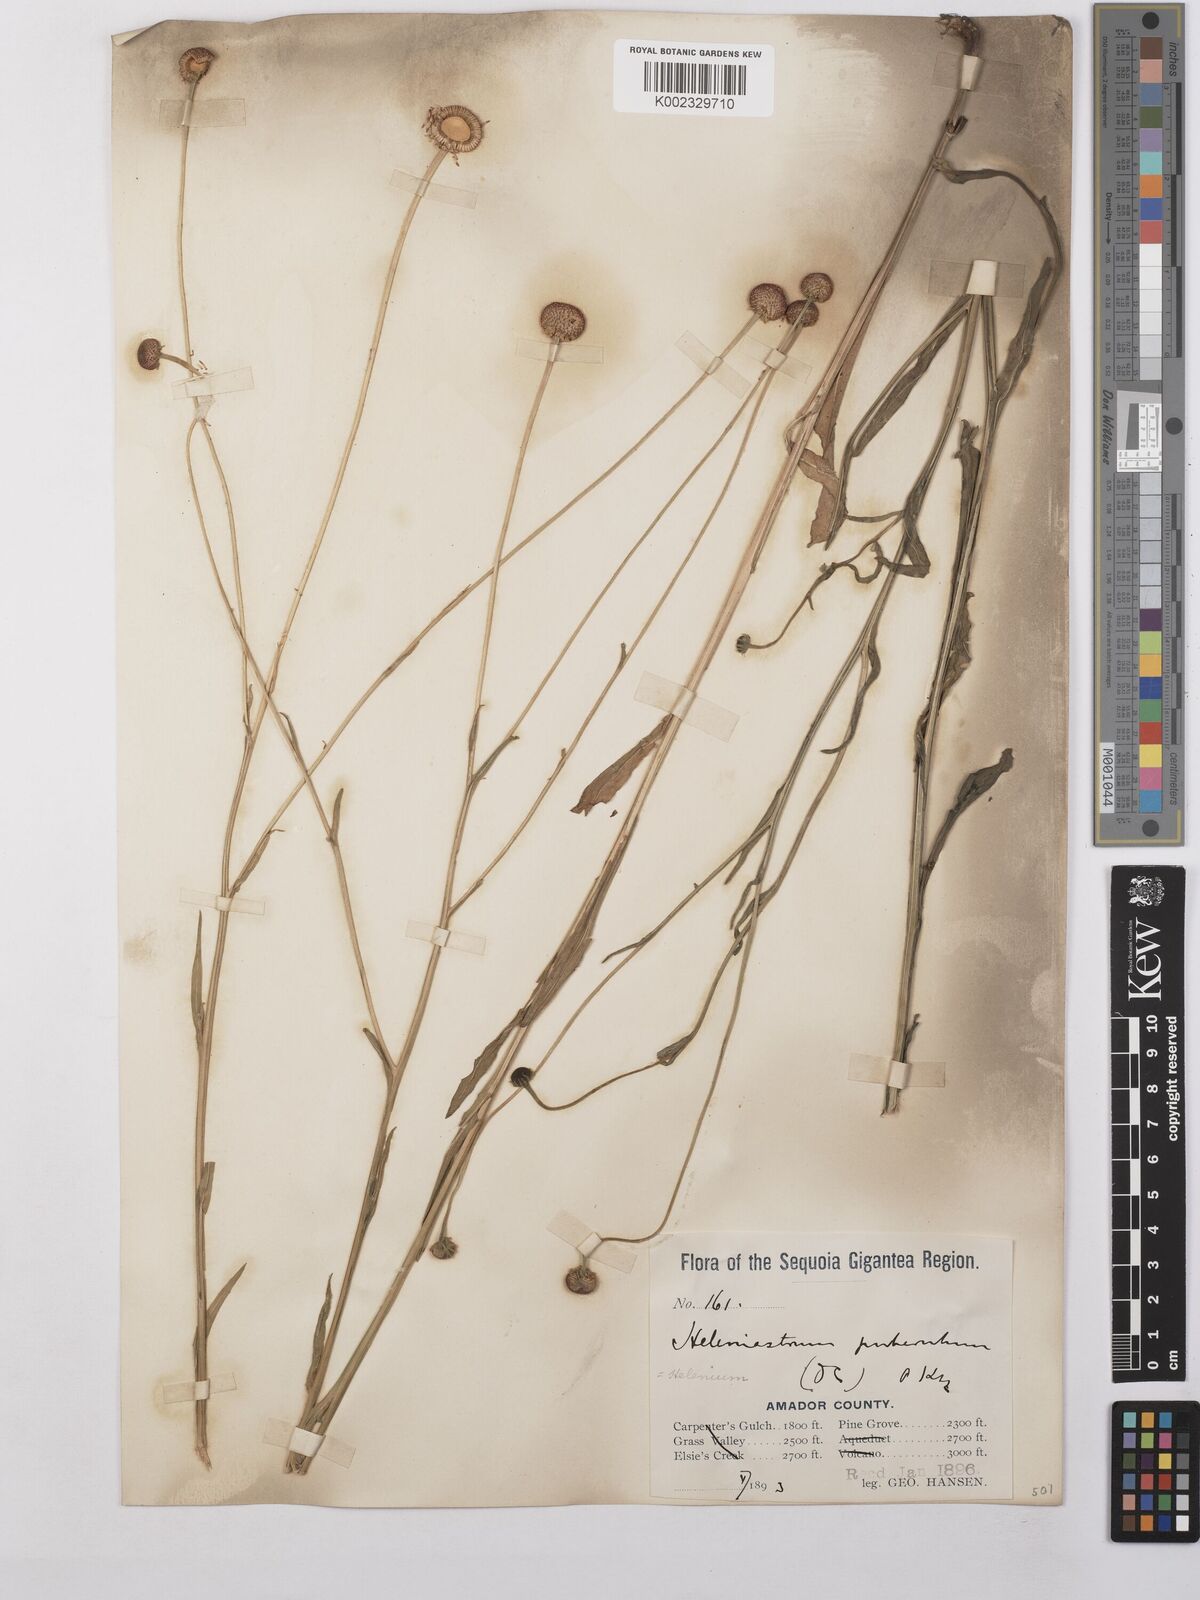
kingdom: Plantae
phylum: Tracheophyta
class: Magnoliopsida
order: Asterales
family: Asteraceae
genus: Helenium
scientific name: Helenium puberulum
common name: Sneezewort
